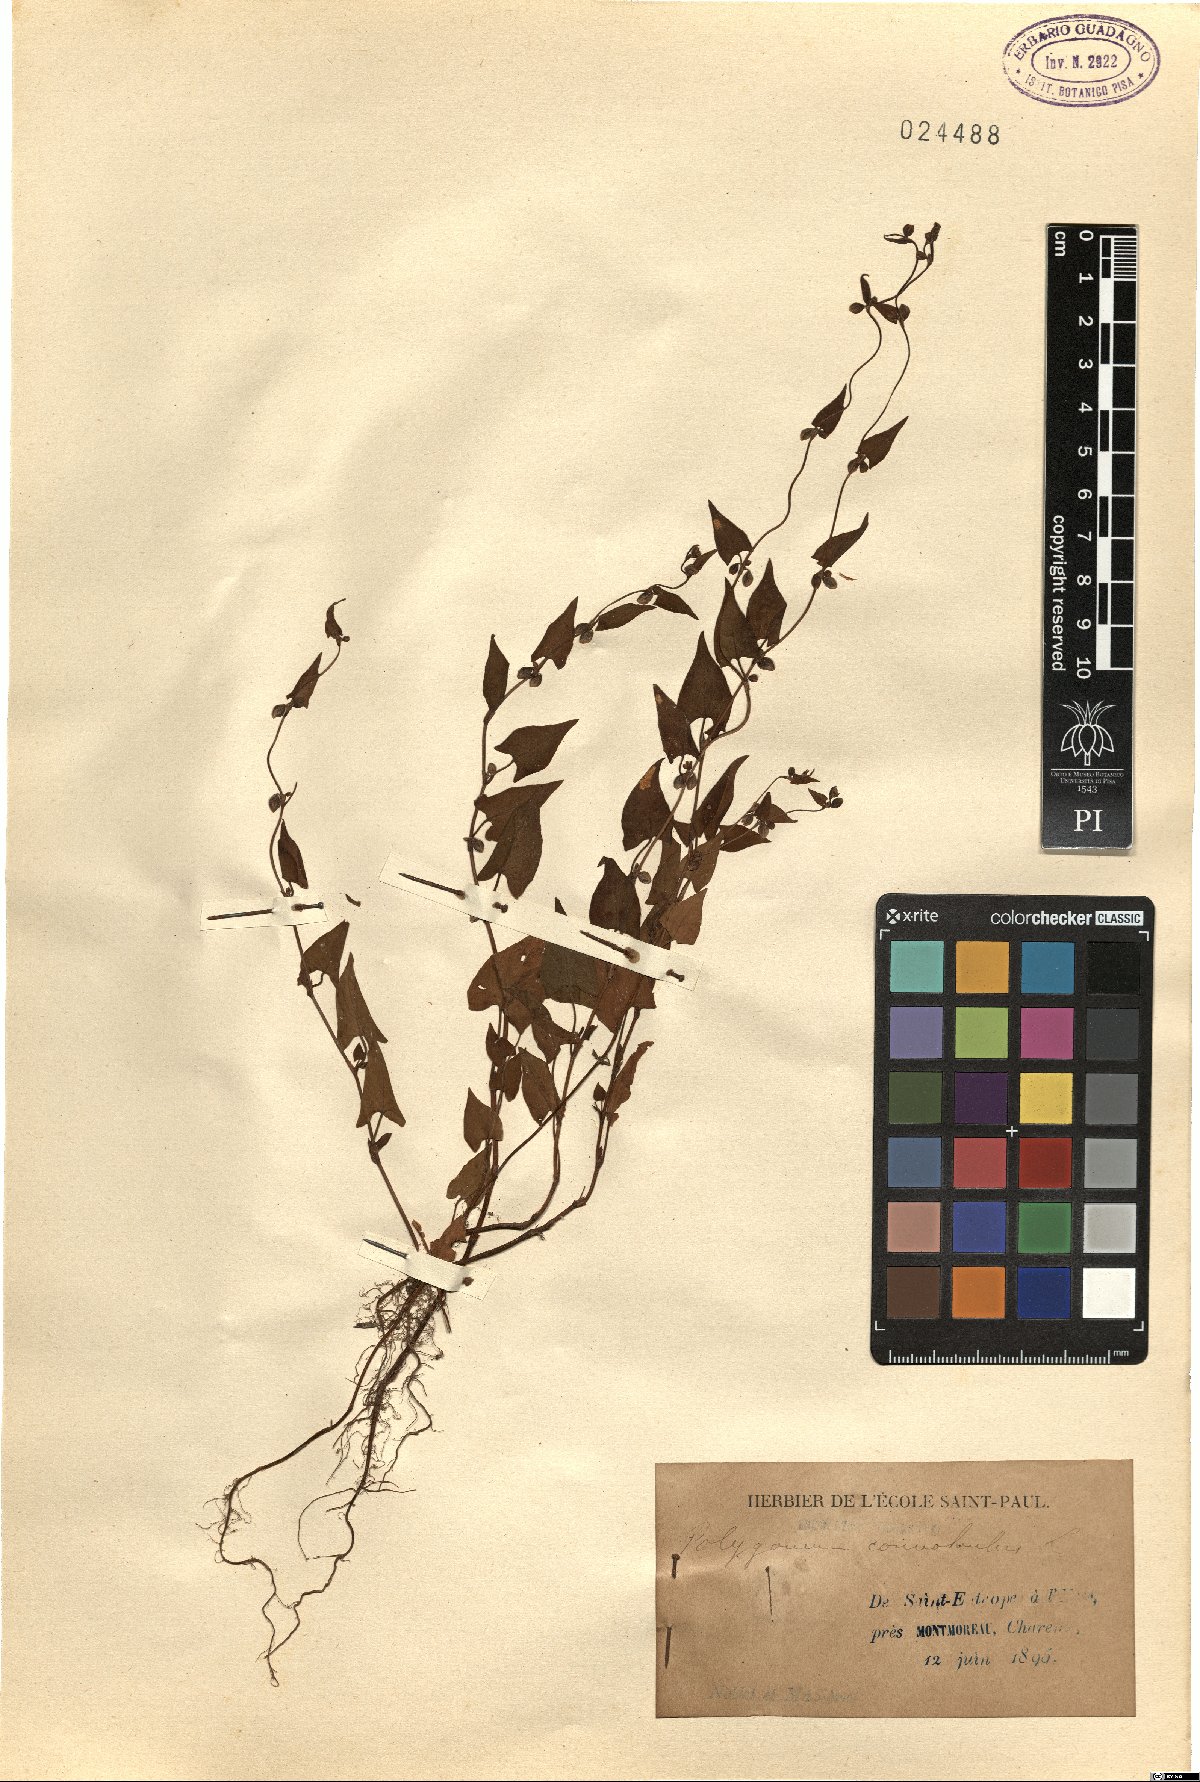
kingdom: Plantae
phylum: Tracheophyta
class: Magnoliopsida
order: Caryophyllales
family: Polygonaceae
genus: Fallopia
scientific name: Fallopia convolvulus
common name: Black bindweed
